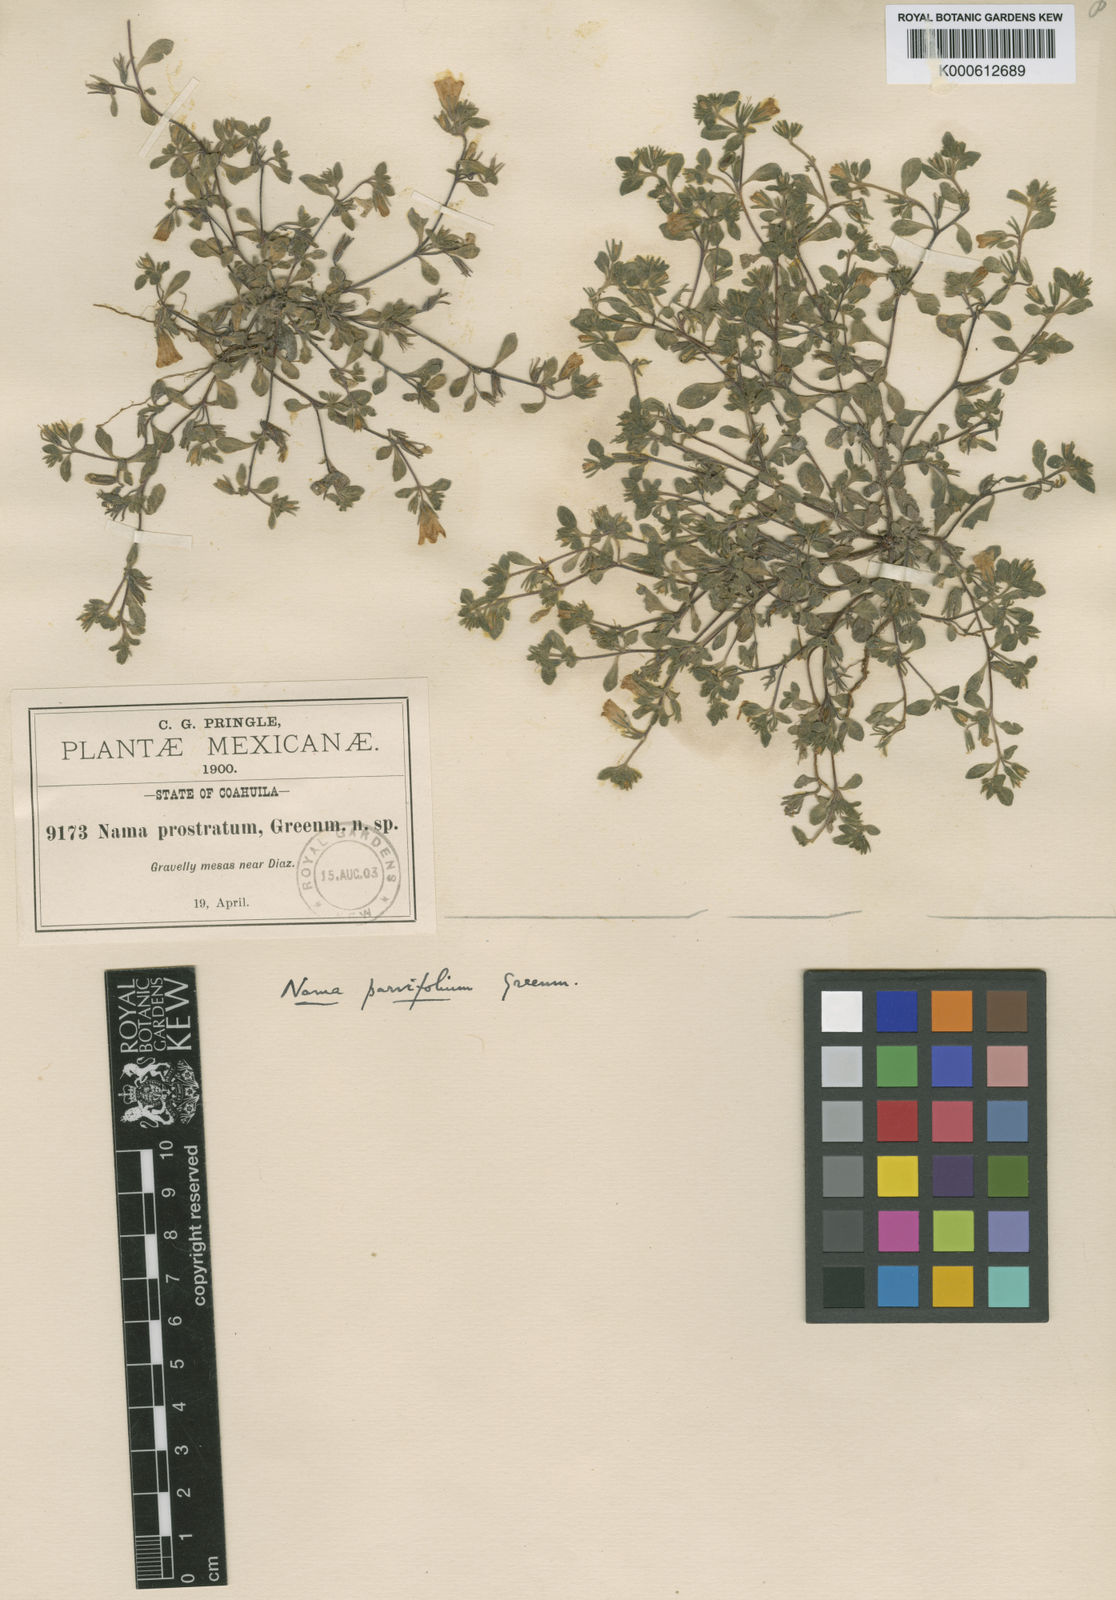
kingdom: Plantae
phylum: Tracheophyta
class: Magnoliopsida
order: Boraginales
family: Namaceae
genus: Nama
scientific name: Nama parviflora
